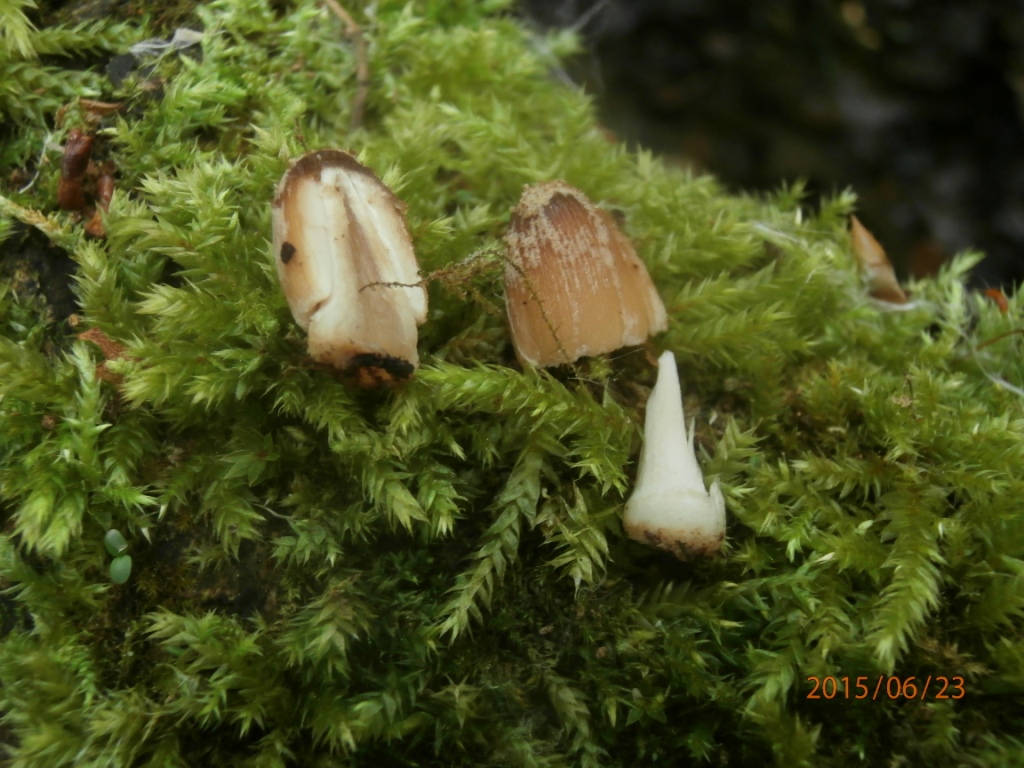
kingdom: Fungi
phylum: Basidiomycota
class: Agaricomycetes
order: Agaricales
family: Psathyrellaceae
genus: Coprinellus
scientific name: Coprinellus radians
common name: grynet blækhat
